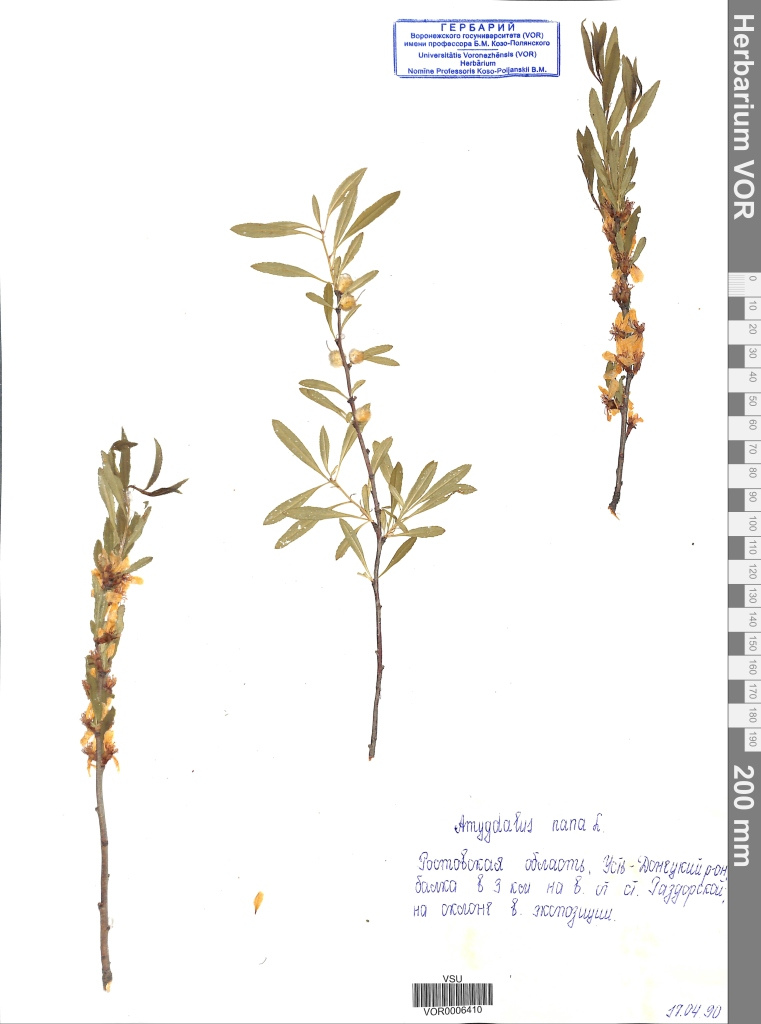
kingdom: Plantae
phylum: Tracheophyta
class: Magnoliopsida
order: Rosales
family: Rosaceae
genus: Prunus
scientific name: Prunus tenella
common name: Dwarf russian almond
